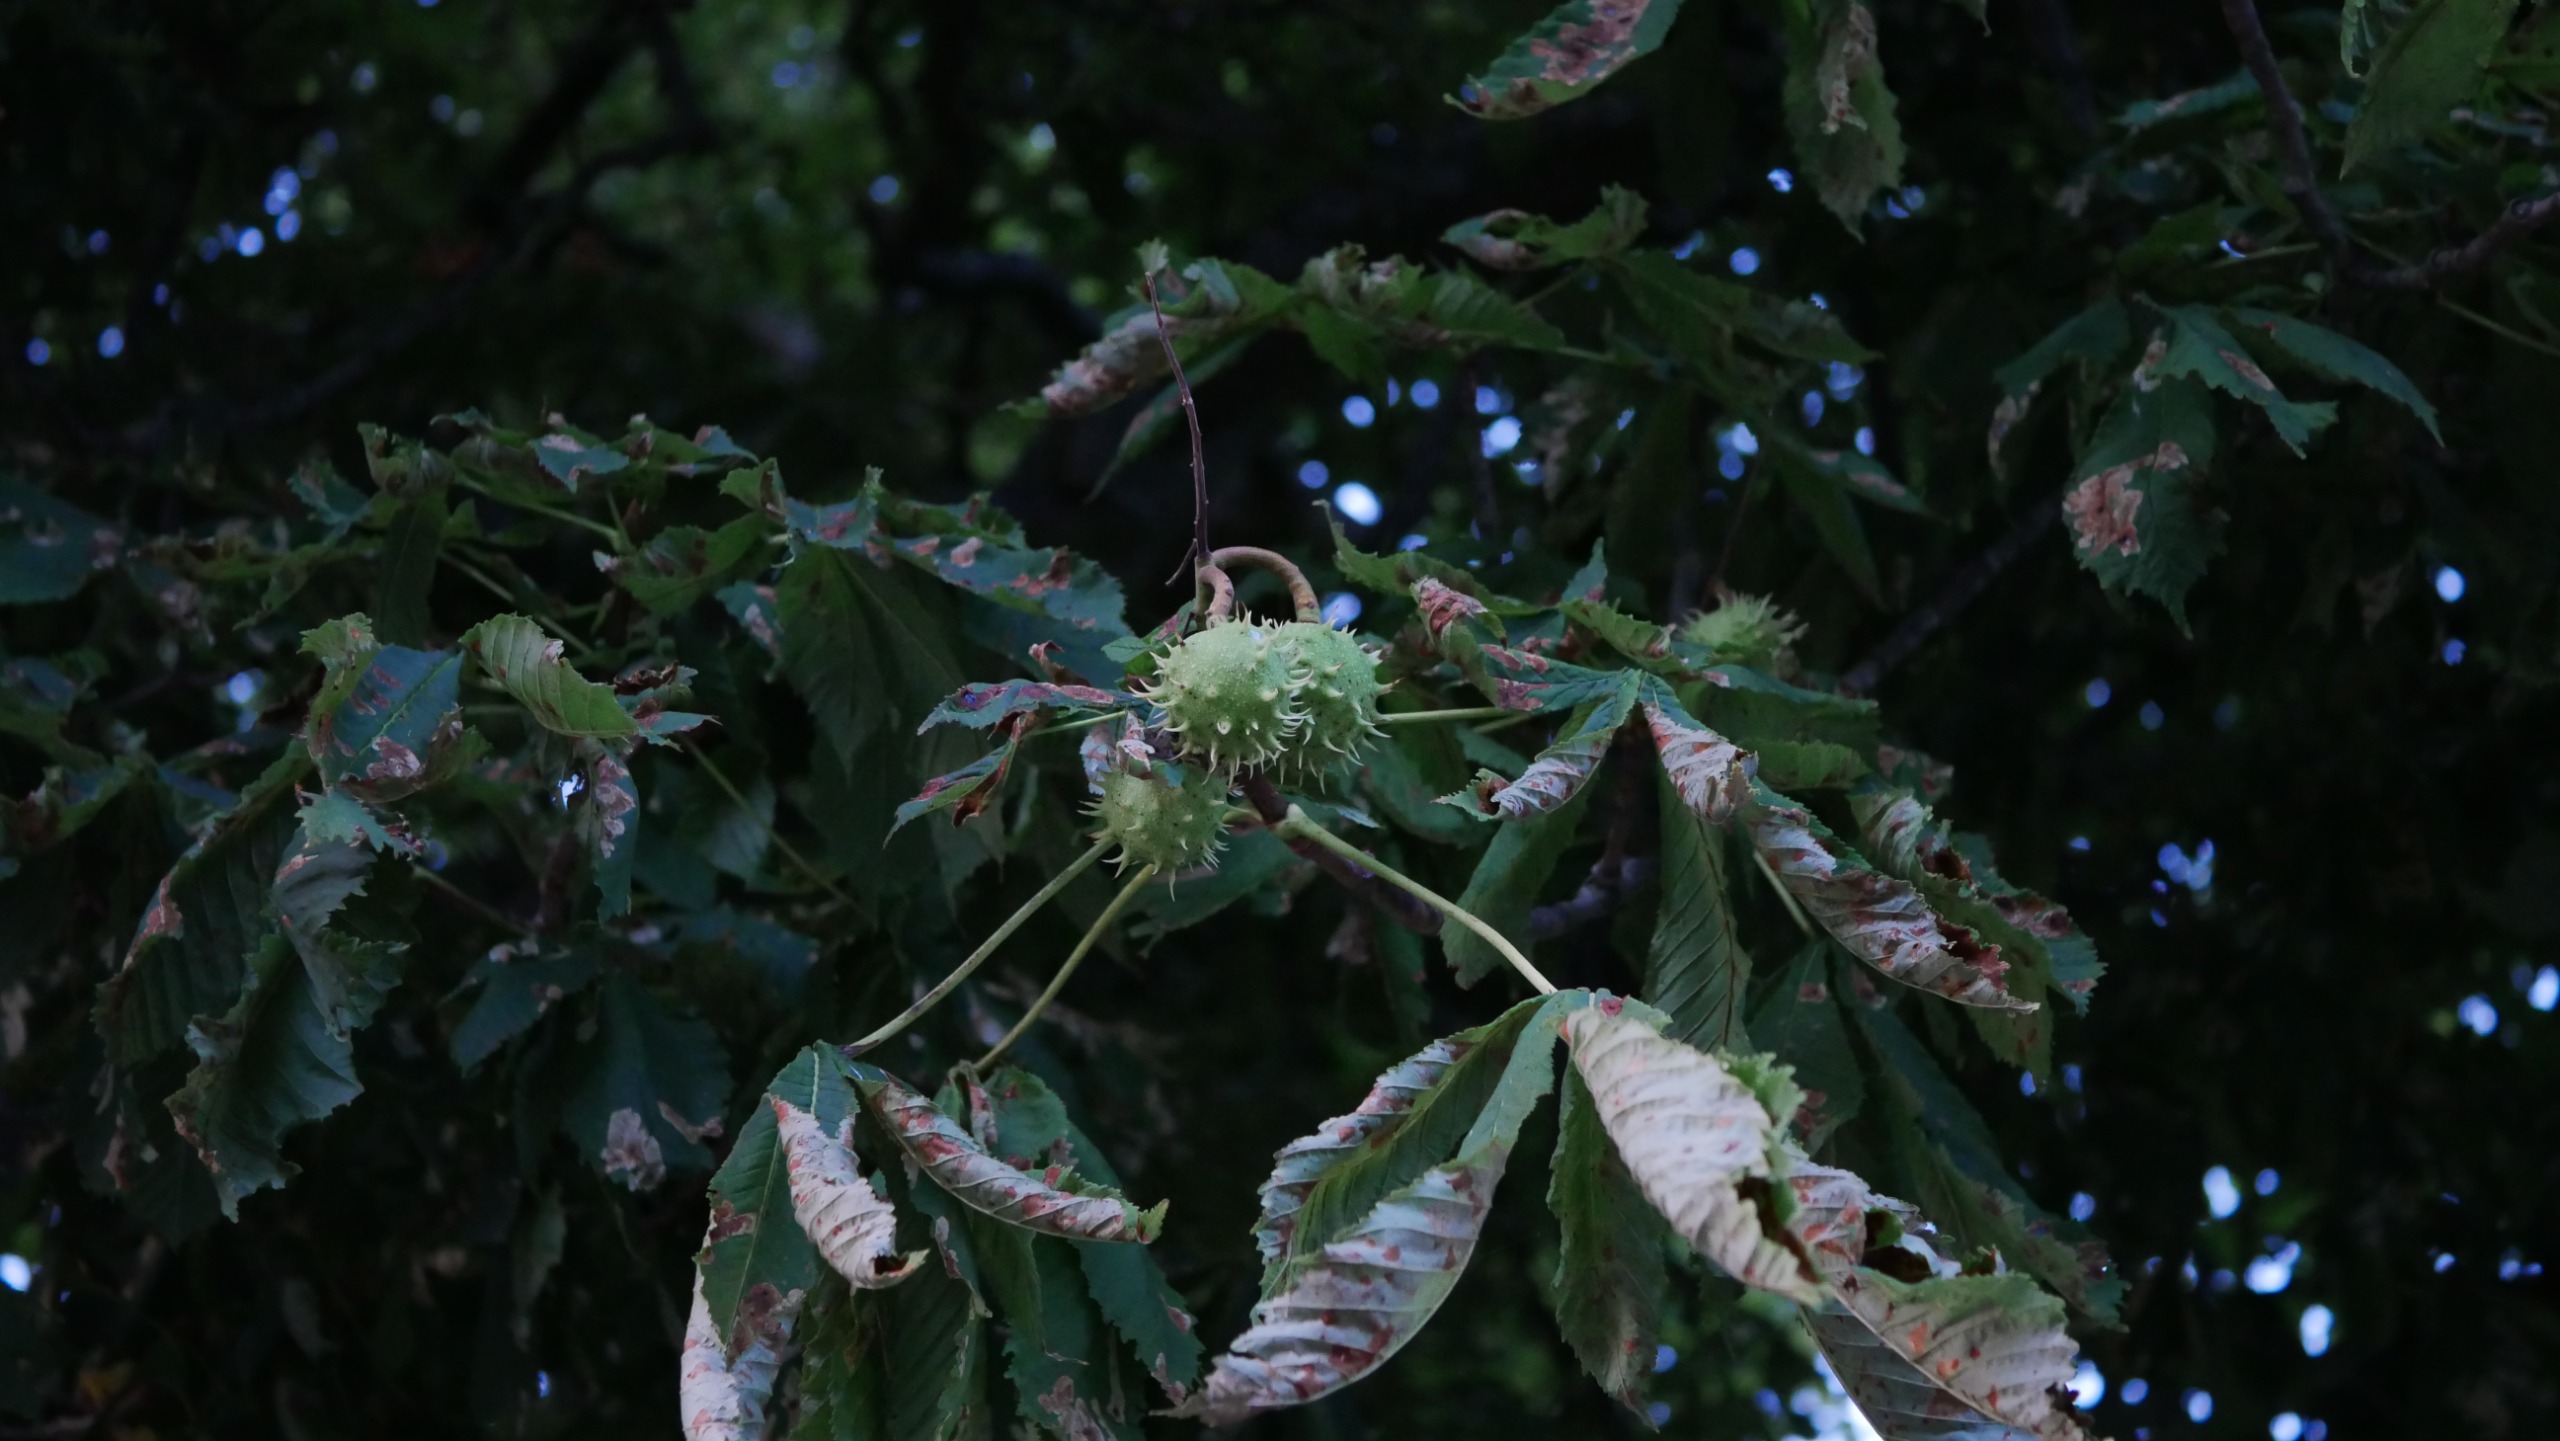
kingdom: Plantae
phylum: Tracheophyta
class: Magnoliopsida
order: Sapindales
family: Sapindaceae
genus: Aesculus
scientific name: Aesculus hippocastanum
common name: Hestekastanie
